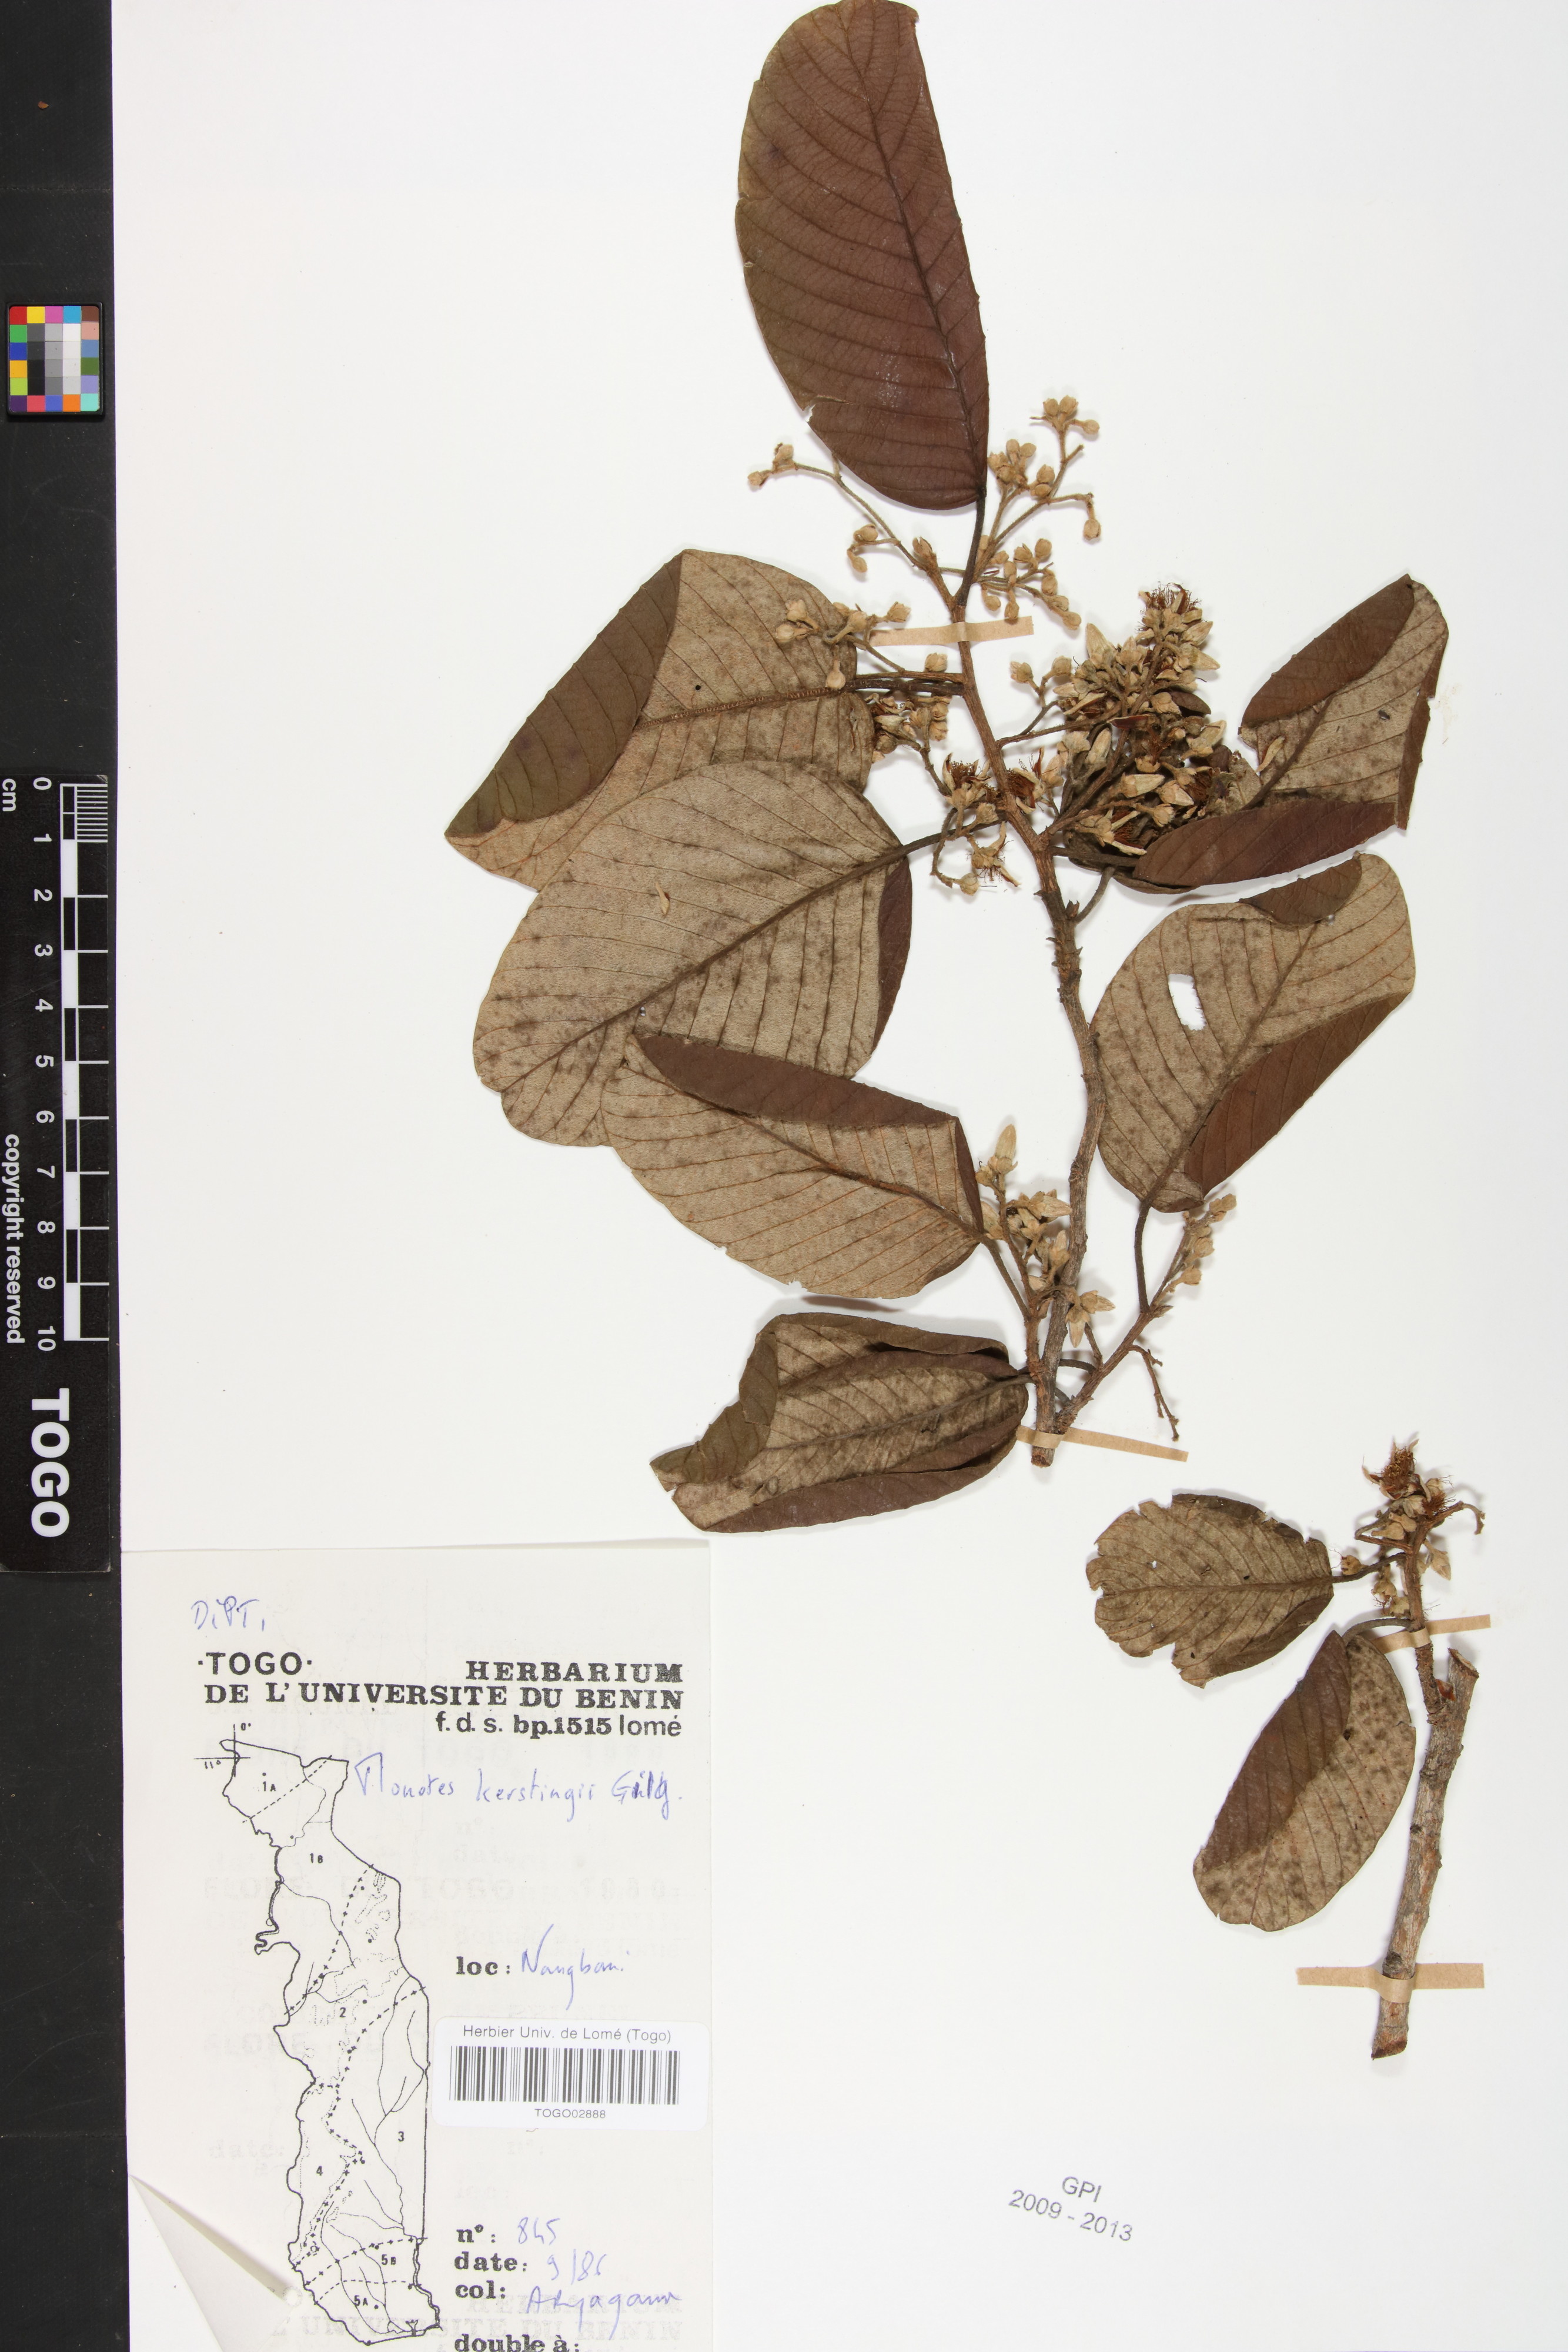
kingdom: Plantae
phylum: Tracheophyta
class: Magnoliopsida
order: Malvales
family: Dipterocarpaceae
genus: Monotes
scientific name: Monotes kerstingii
